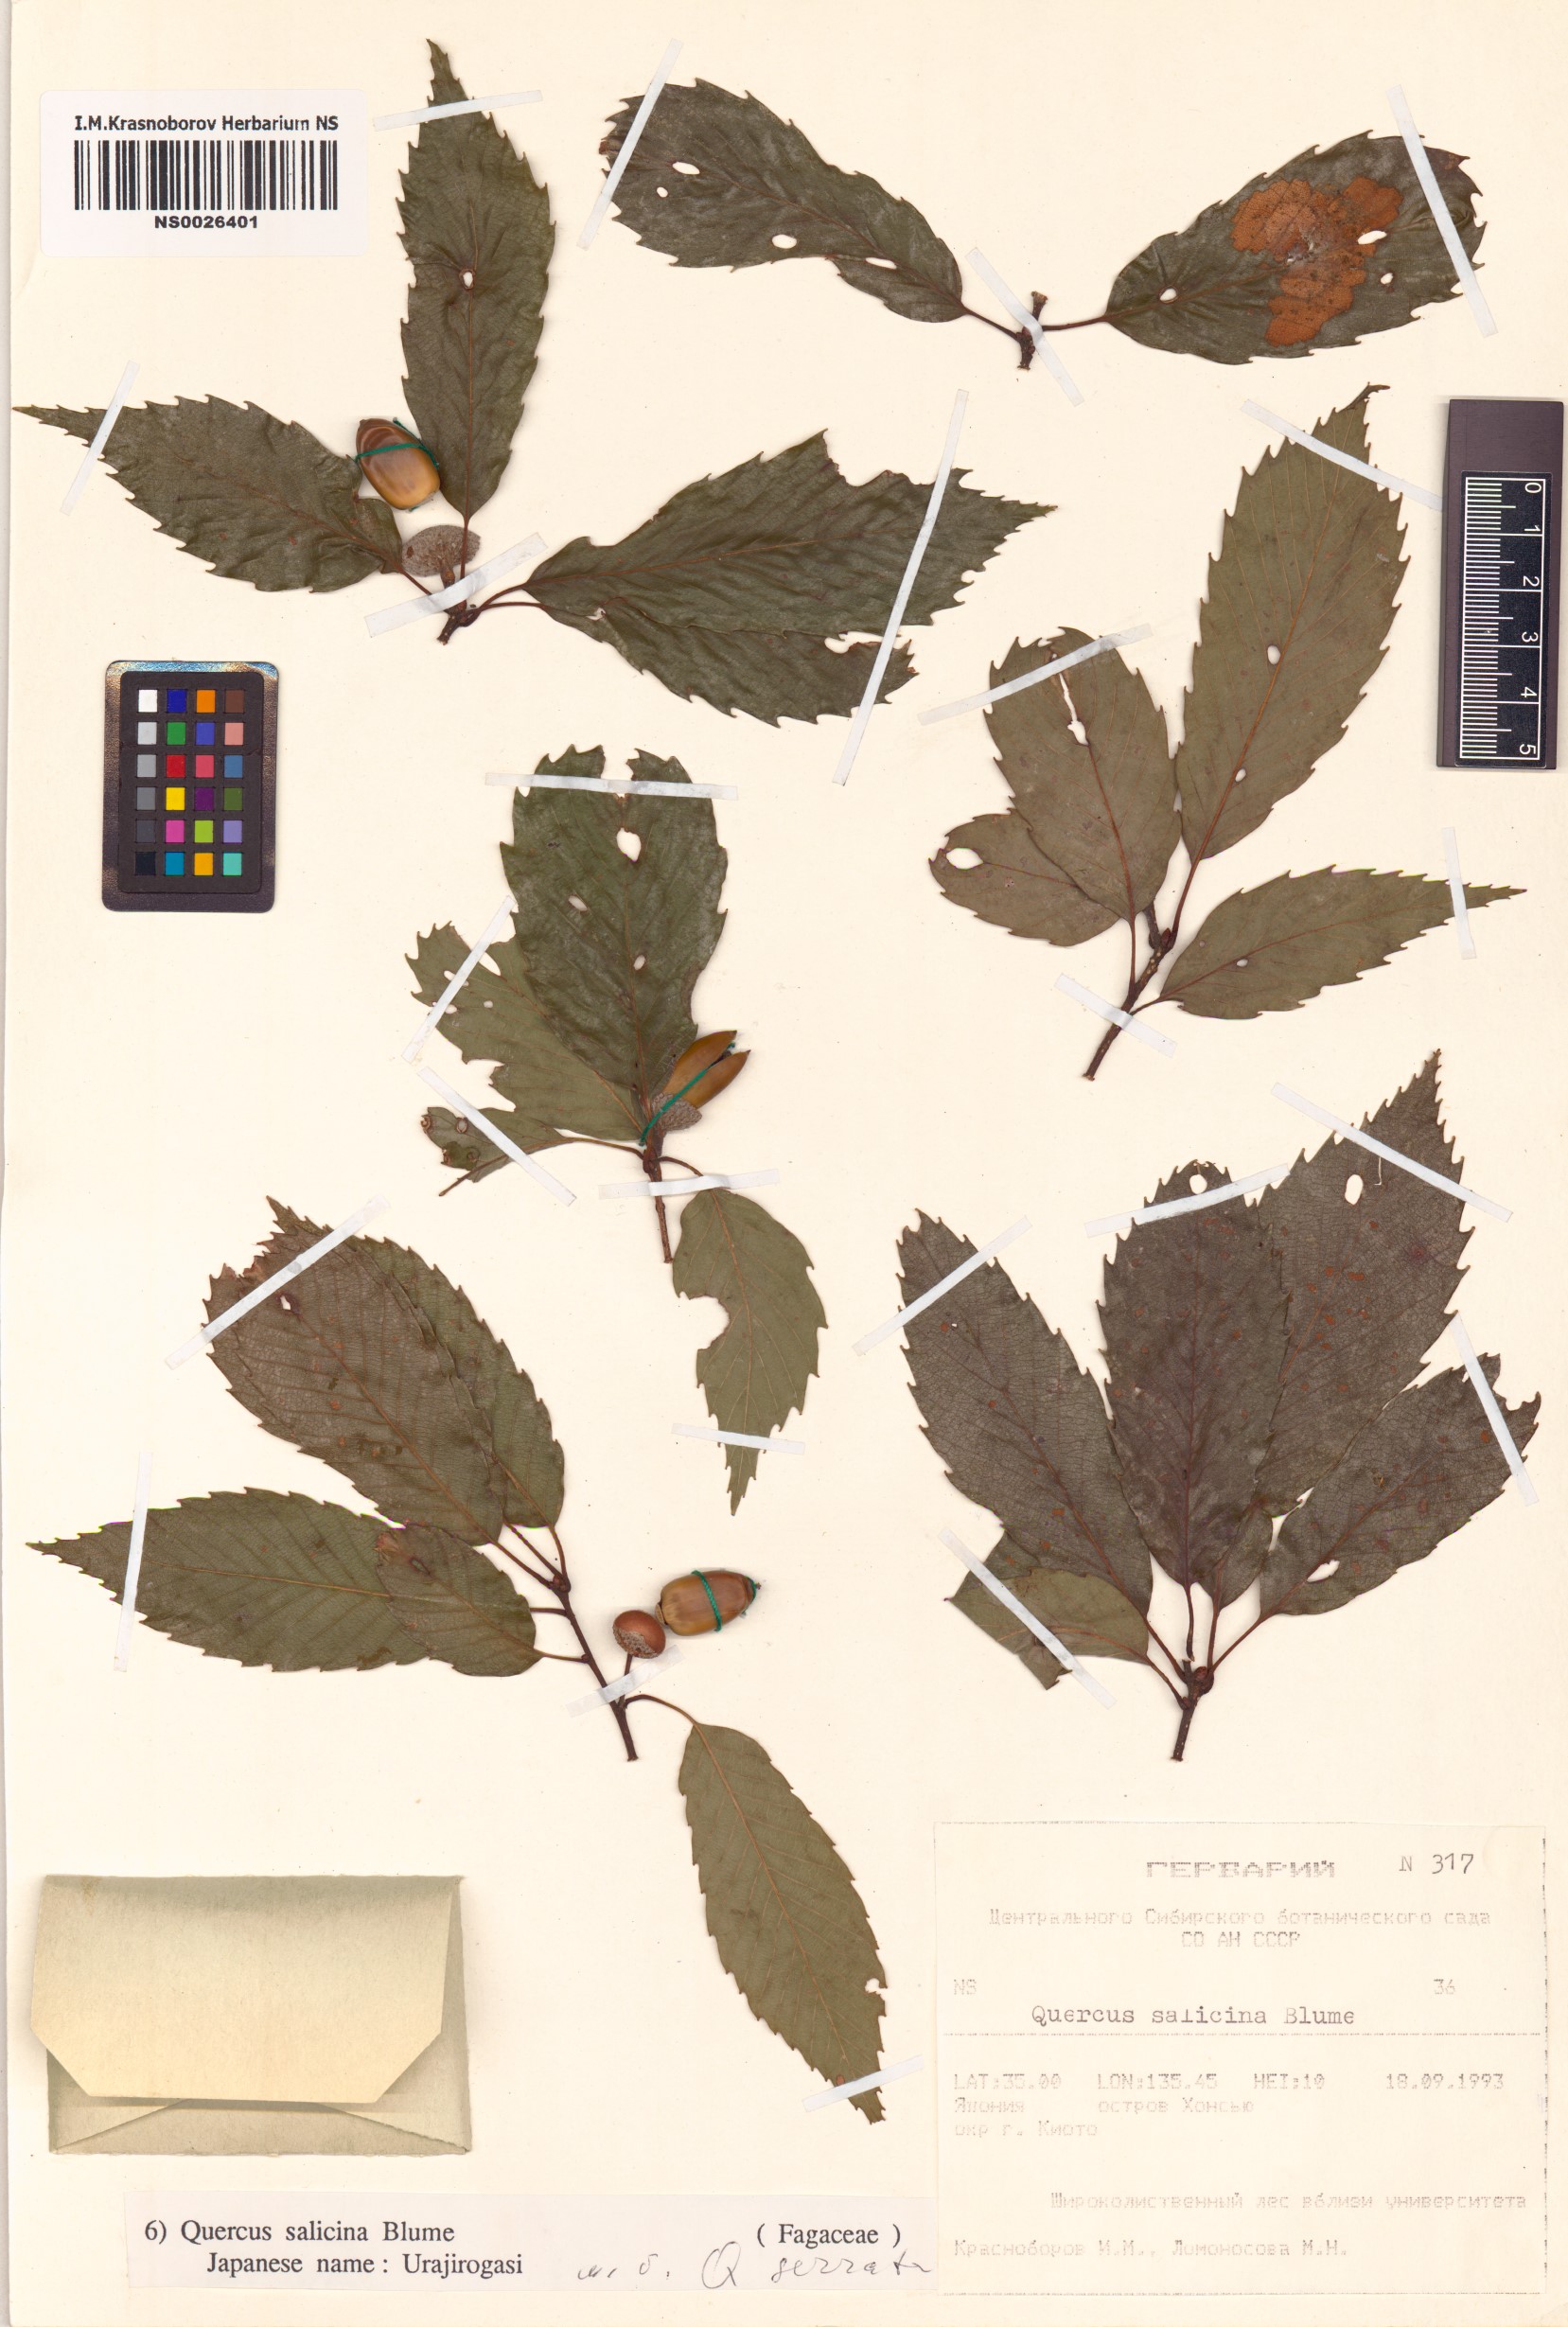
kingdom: Plantae
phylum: Tracheophyta
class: Magnoliopsida
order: Fagales
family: Fagaceae
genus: Quercus
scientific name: Quercus salicina
